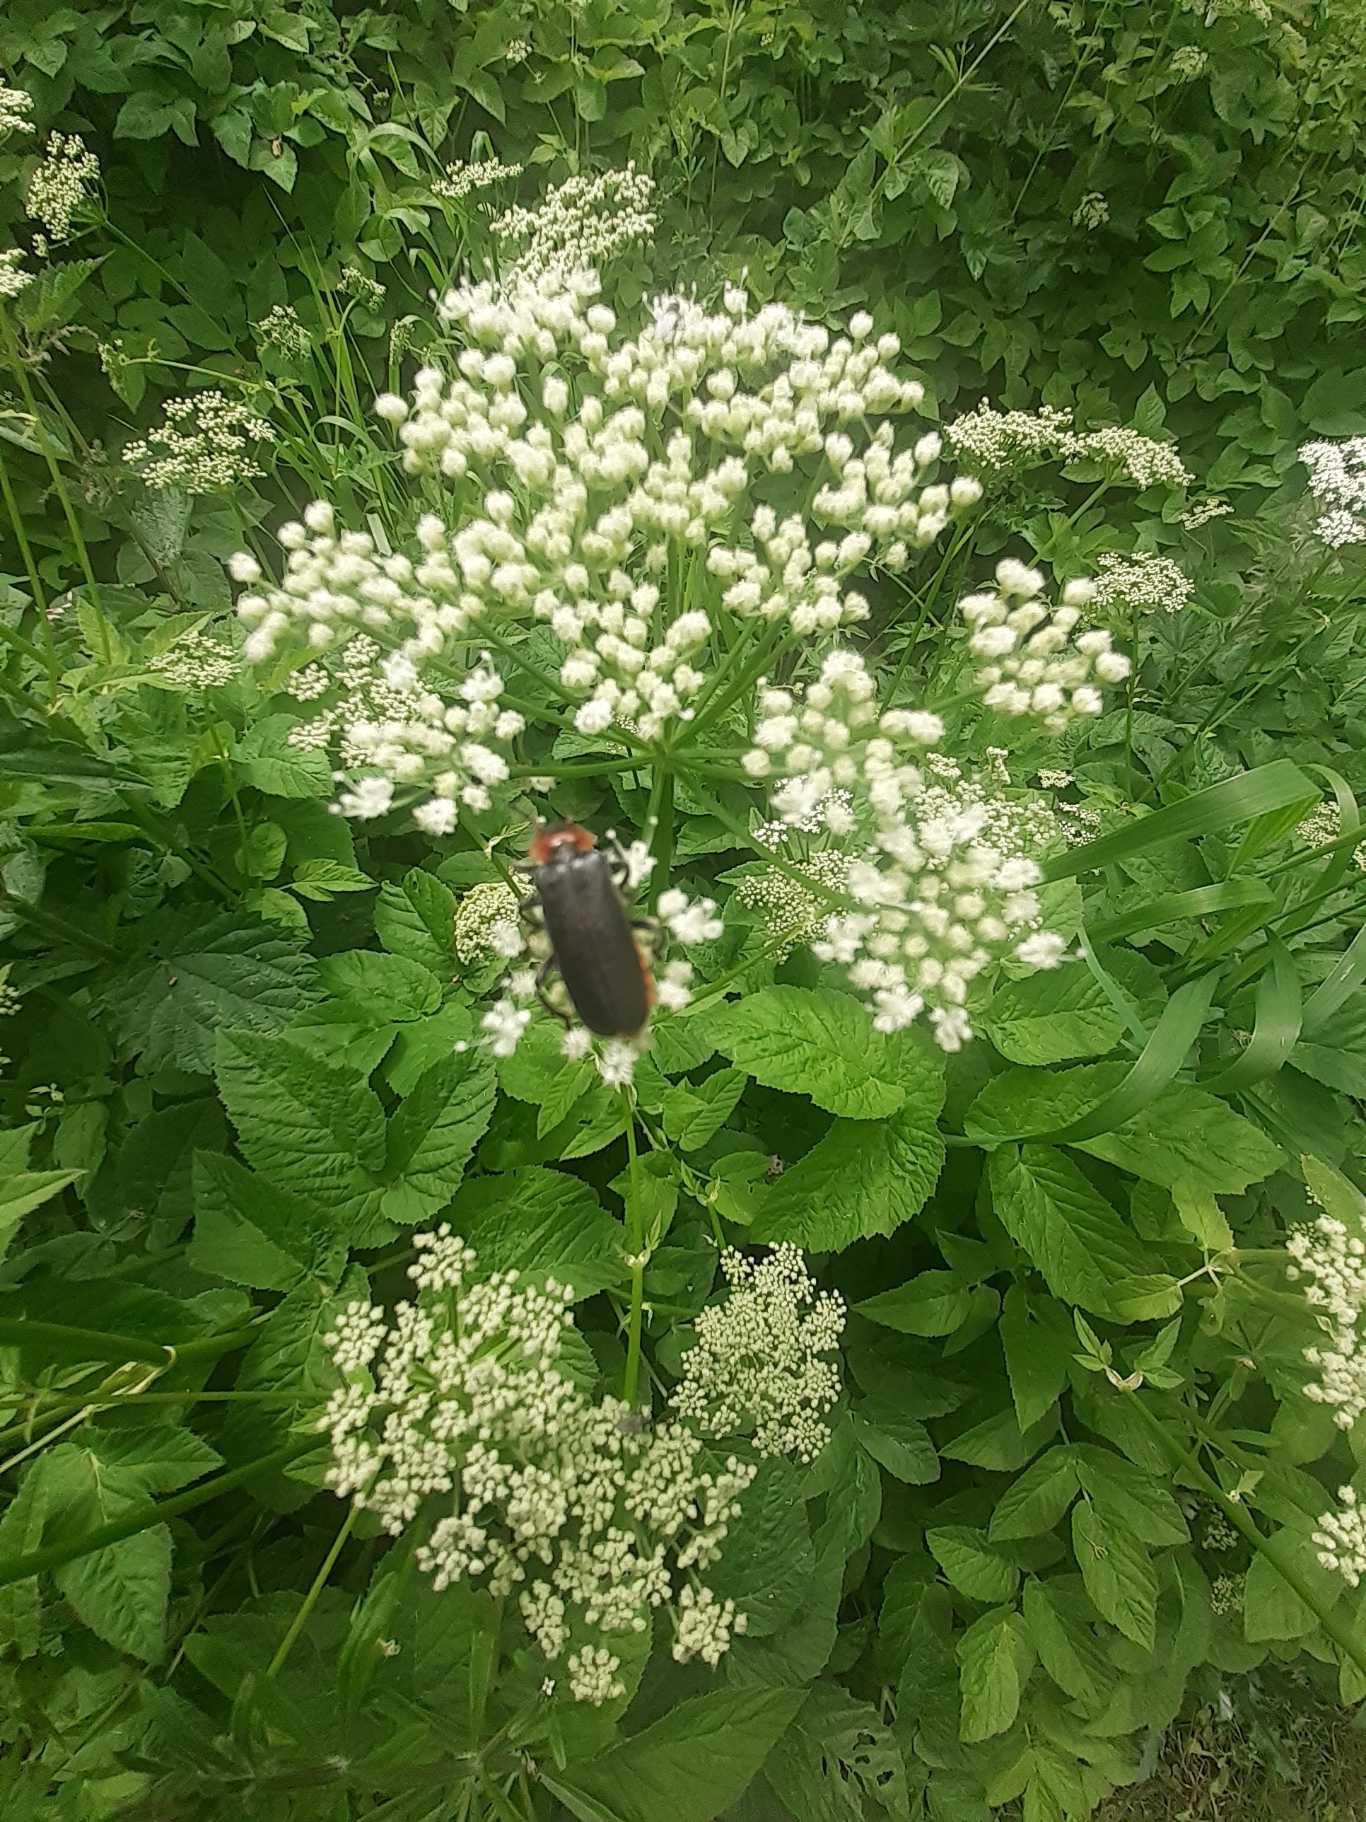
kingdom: Animalia
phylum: Arthropoda
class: Insecta
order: Coleoptera
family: Cantharidae
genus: Cantharis
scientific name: Cantharis fusca
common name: Stor blødvinge
